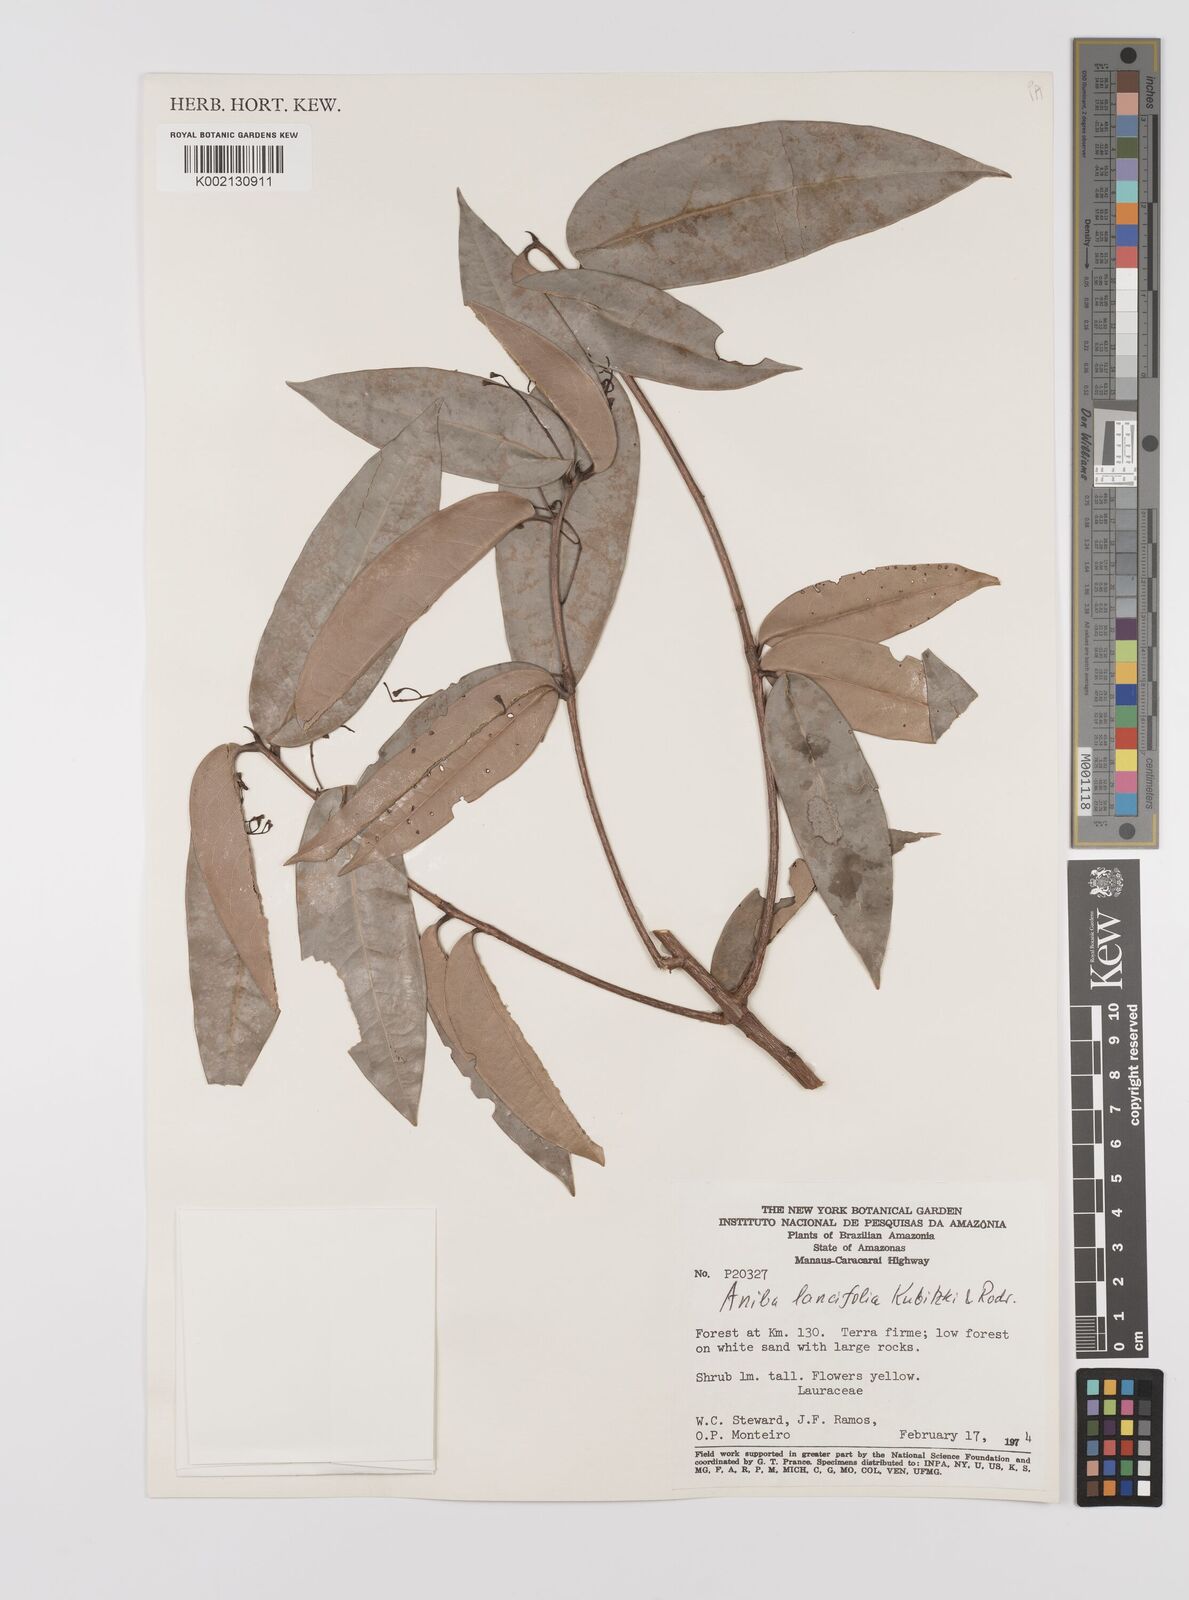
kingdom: Plantae
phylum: Tracheophyta
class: Magnoliopsida
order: Laurales
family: Lauraceae
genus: Aniba
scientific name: Aniba lancifolia
